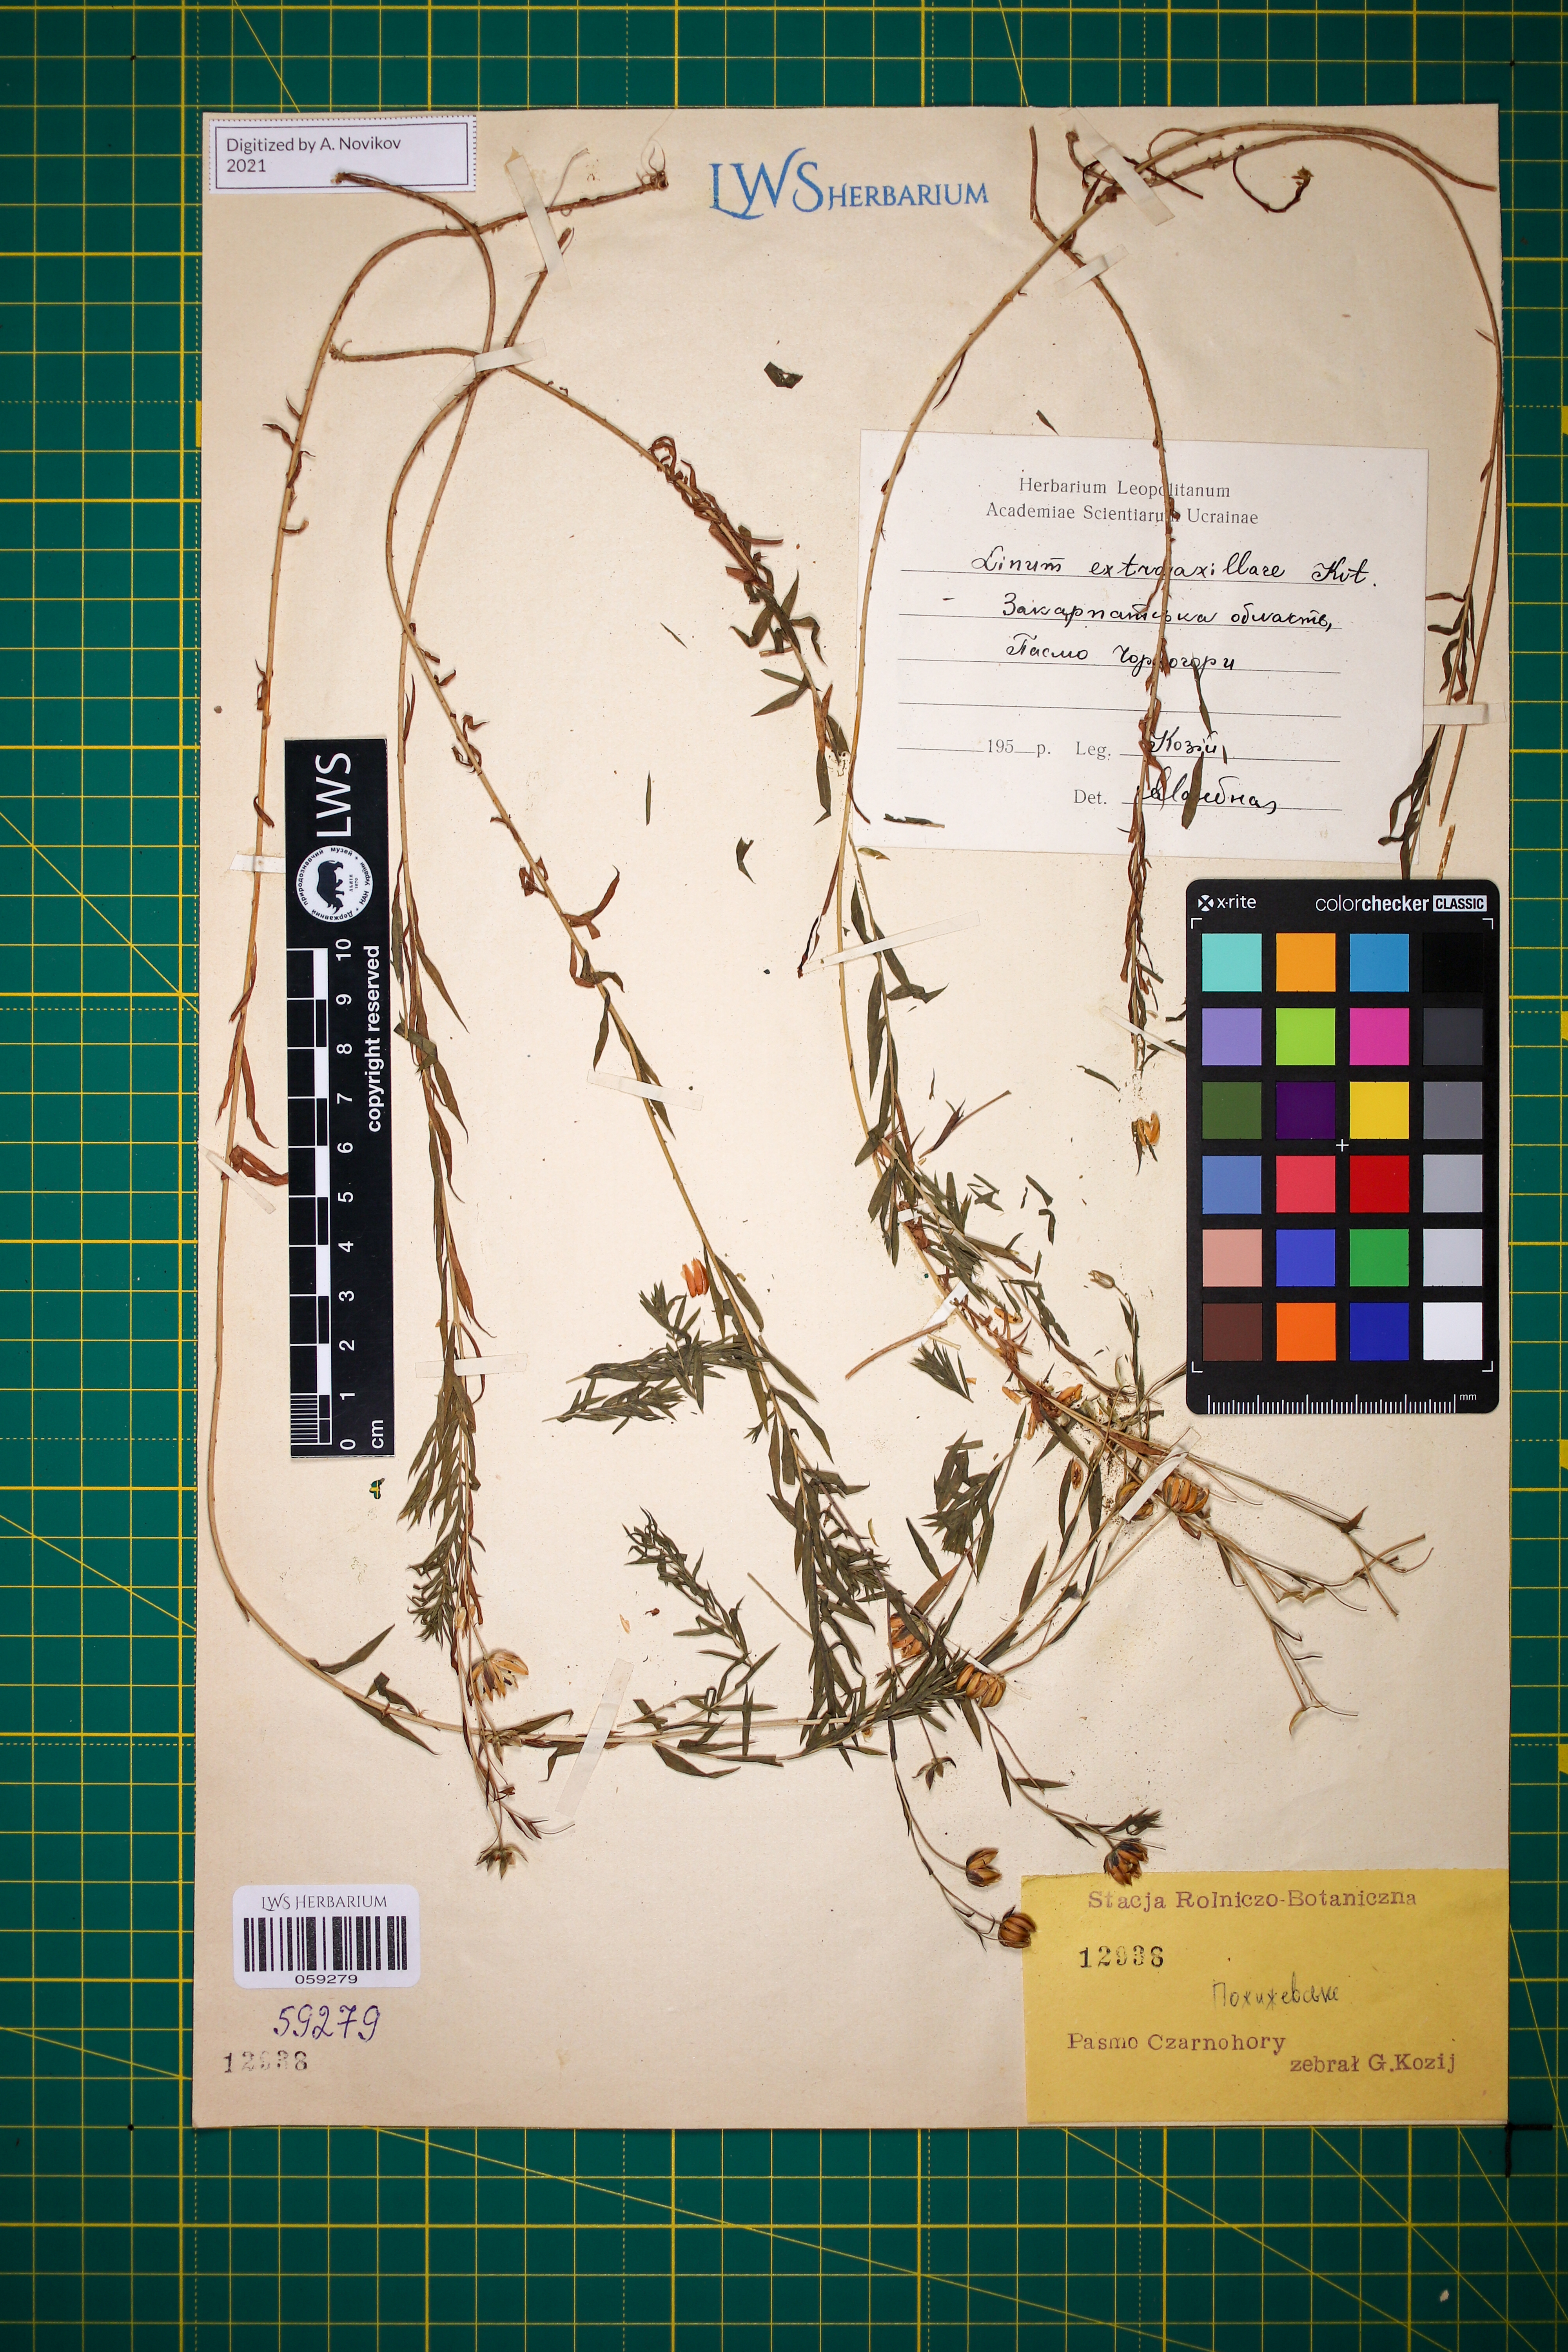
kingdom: Plantae
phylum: Tracheophyta
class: Magnoliopsida
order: Malpighiales
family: Linaceae
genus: Linum
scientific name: Linum perenne
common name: Blue flax
